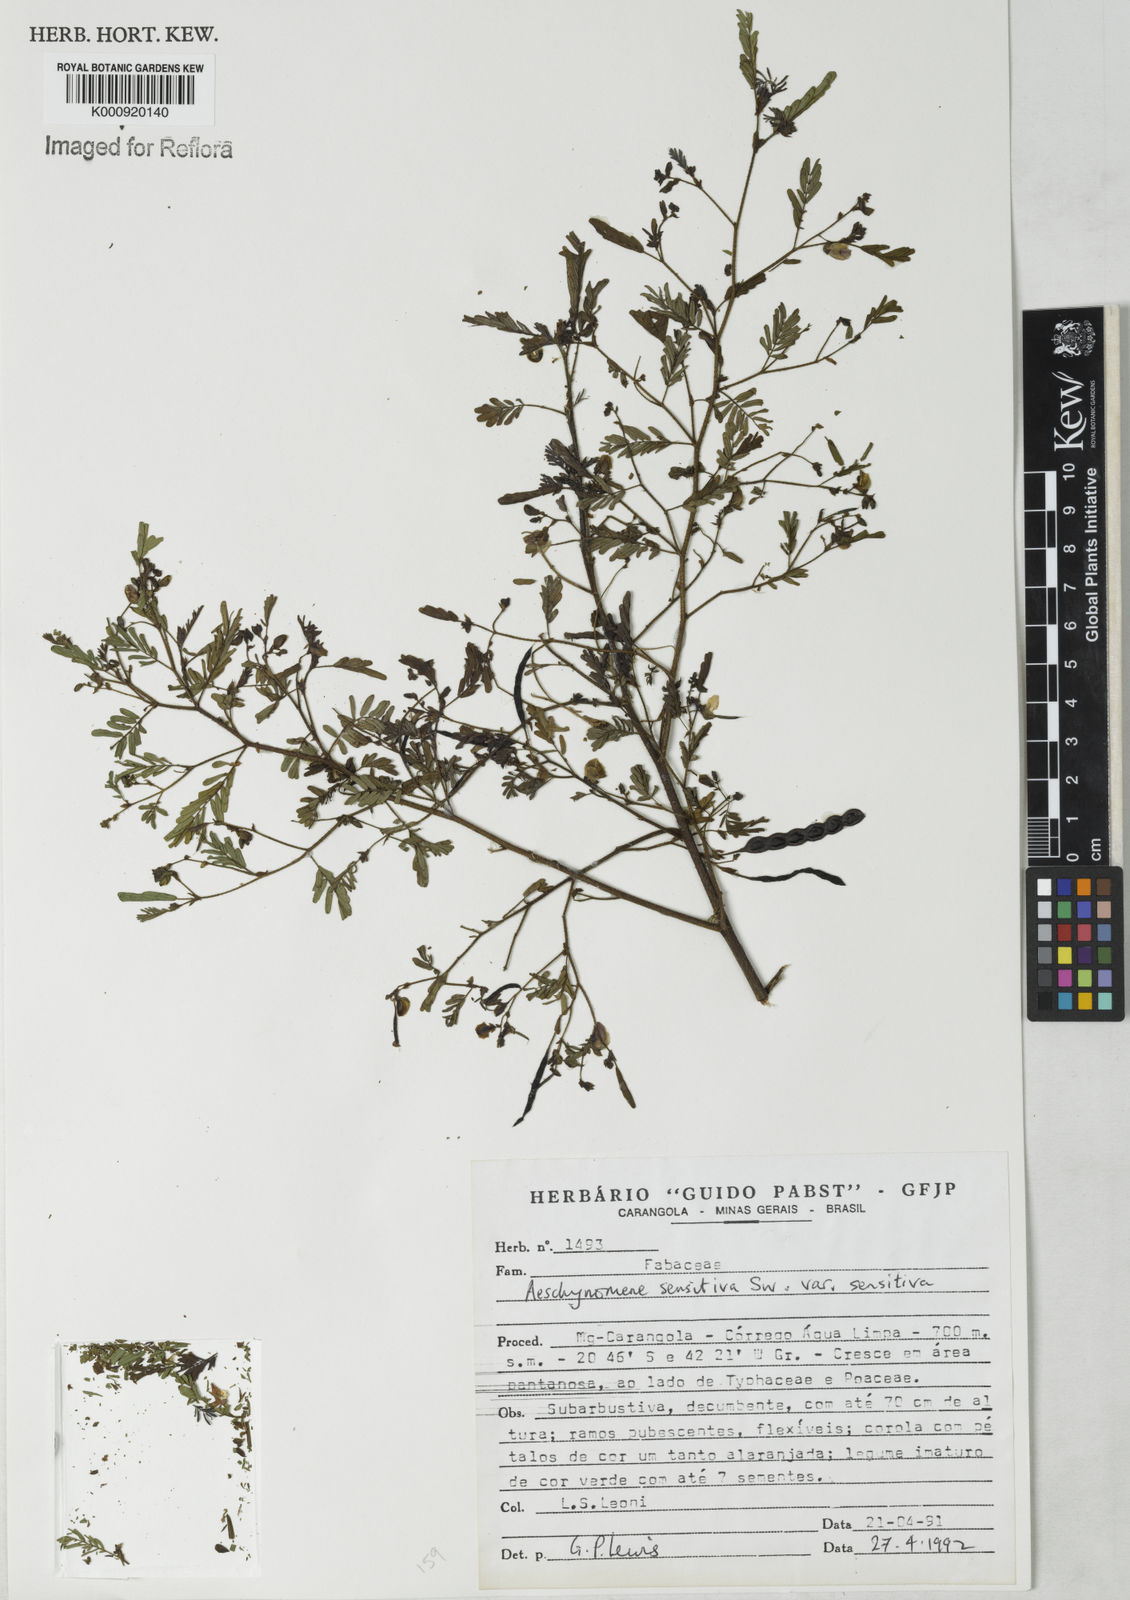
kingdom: Plantae
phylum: Tracheophyta
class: Magnoliopsida
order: Fabales
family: Fabaceae
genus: Aeschynomene
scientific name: Aeschynomene sensitiva
